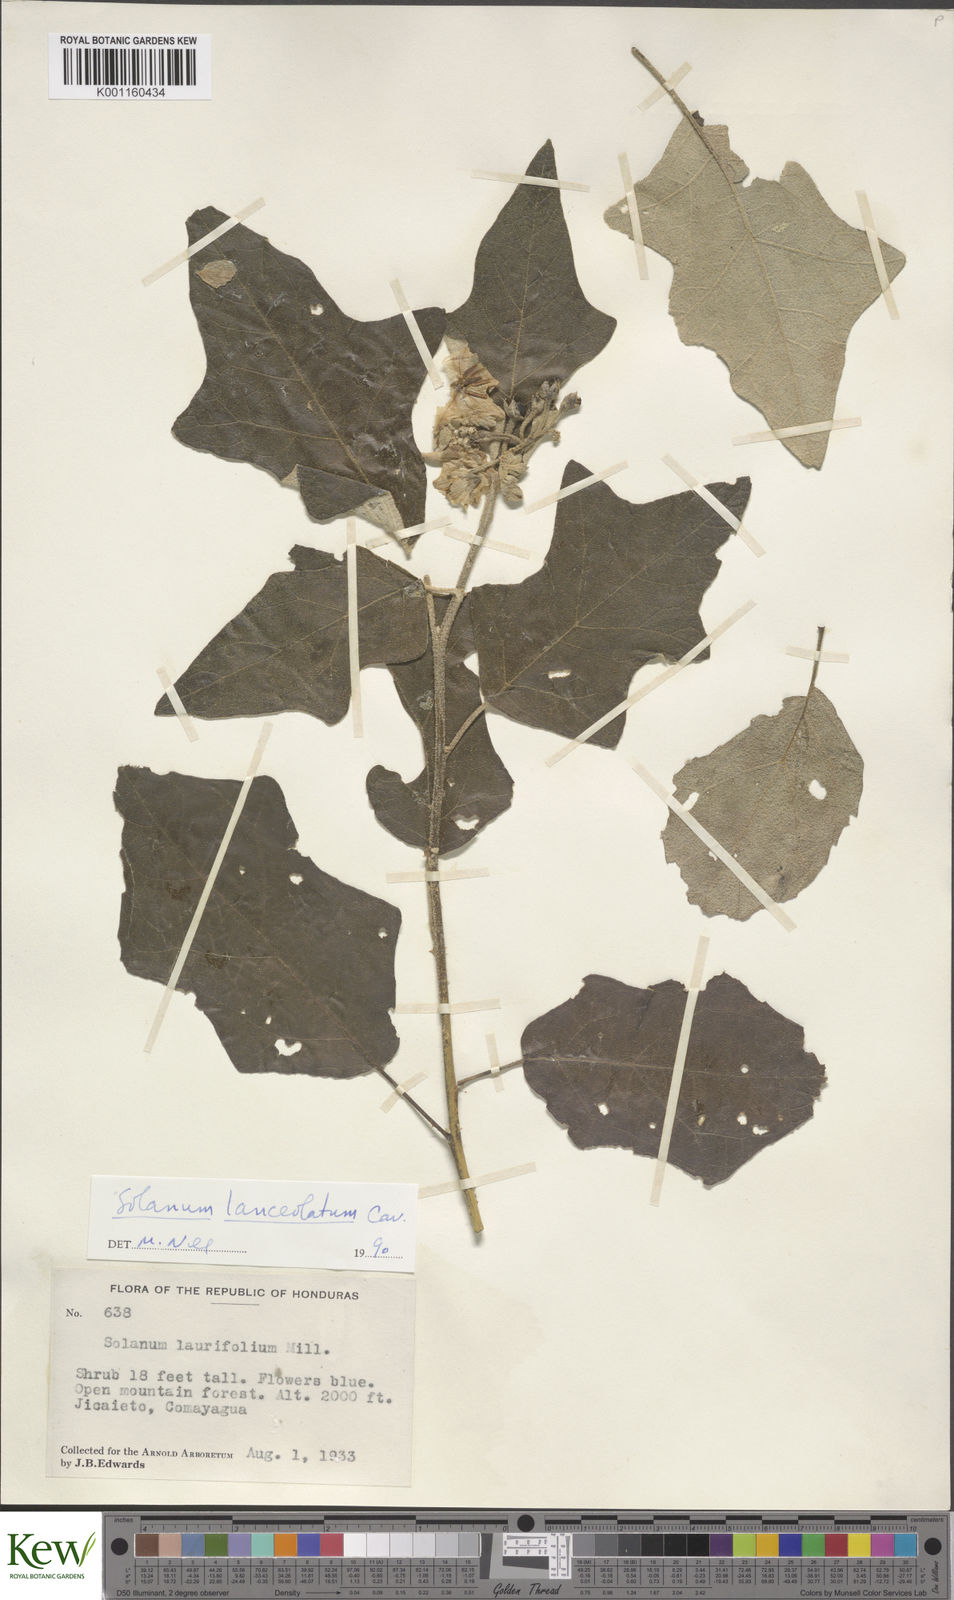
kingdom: Plantae
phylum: Tracheophyta
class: Magnoliopsida
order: Solanales
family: Solanaceae
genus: Solanum
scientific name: Solanum lanceolatum
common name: Orangeberry nightshade
